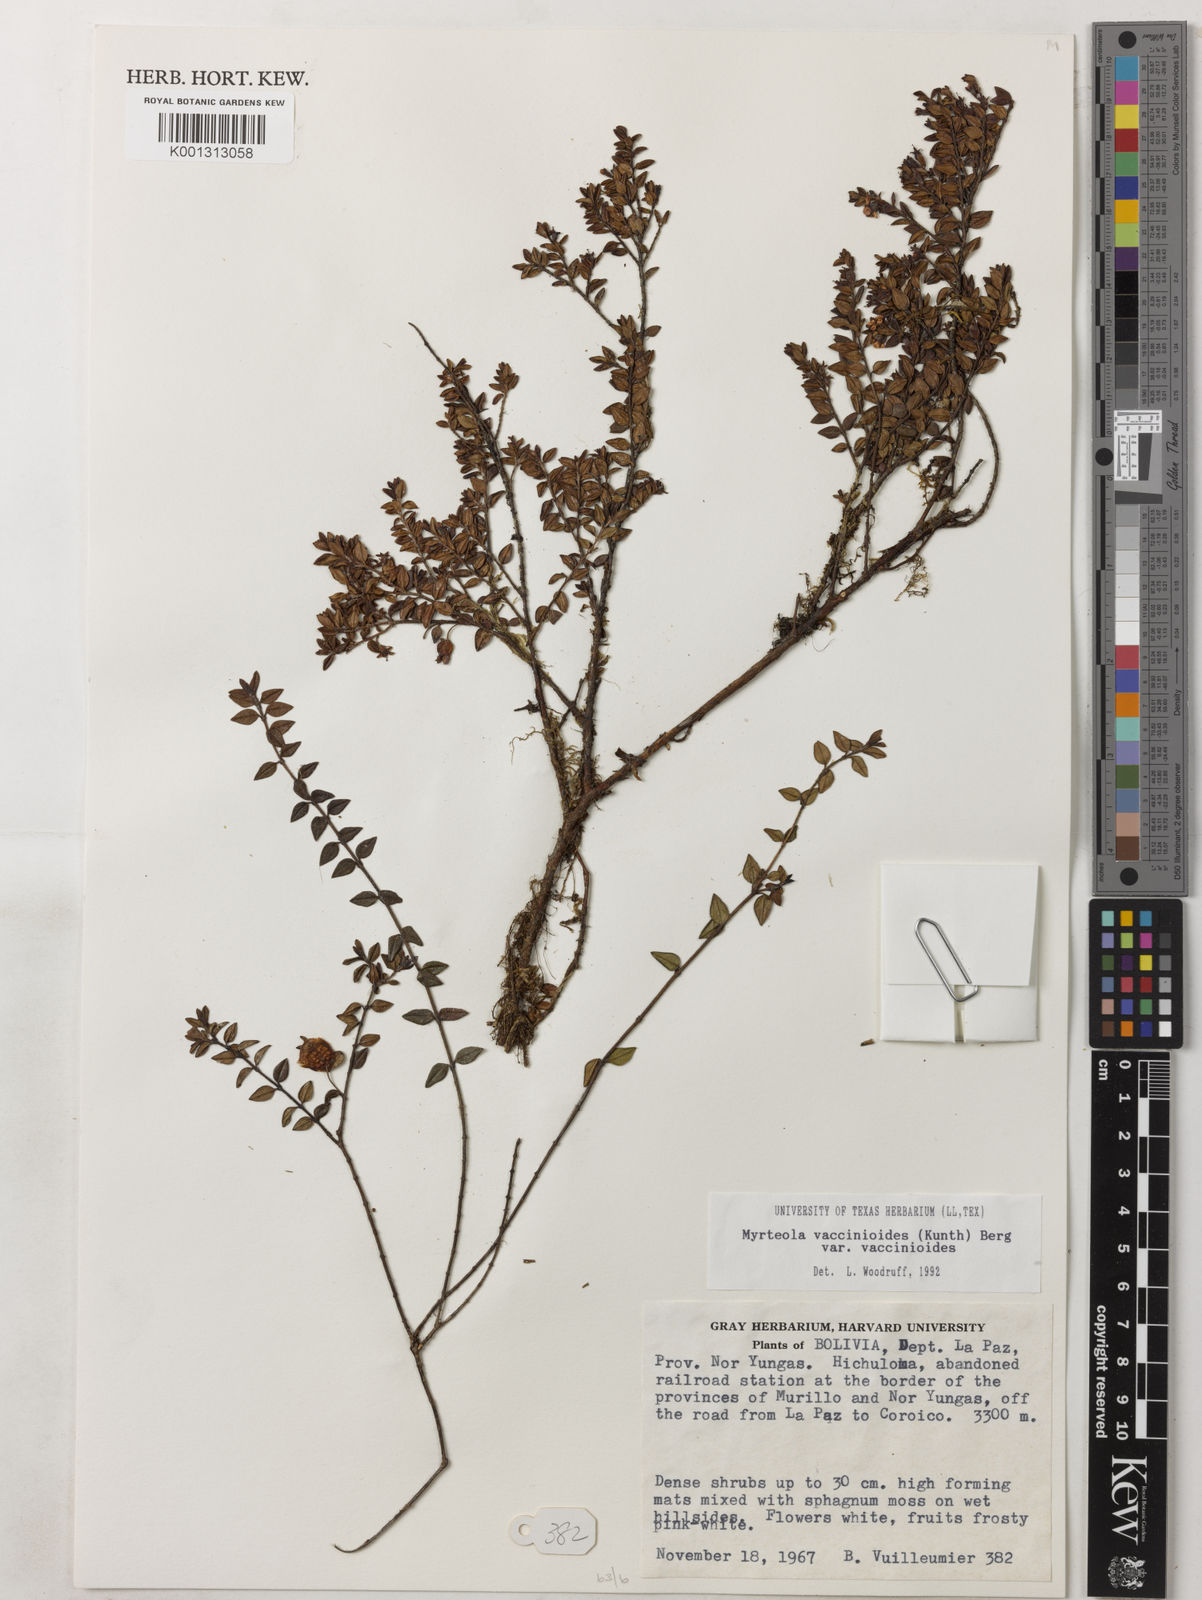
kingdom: Plantae
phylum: Tracheophyta
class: Magnoliopsida
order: Myrtales
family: Myrtaceae
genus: Myrteola
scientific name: Myrteola nummularia
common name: Cranberry-myrtle
